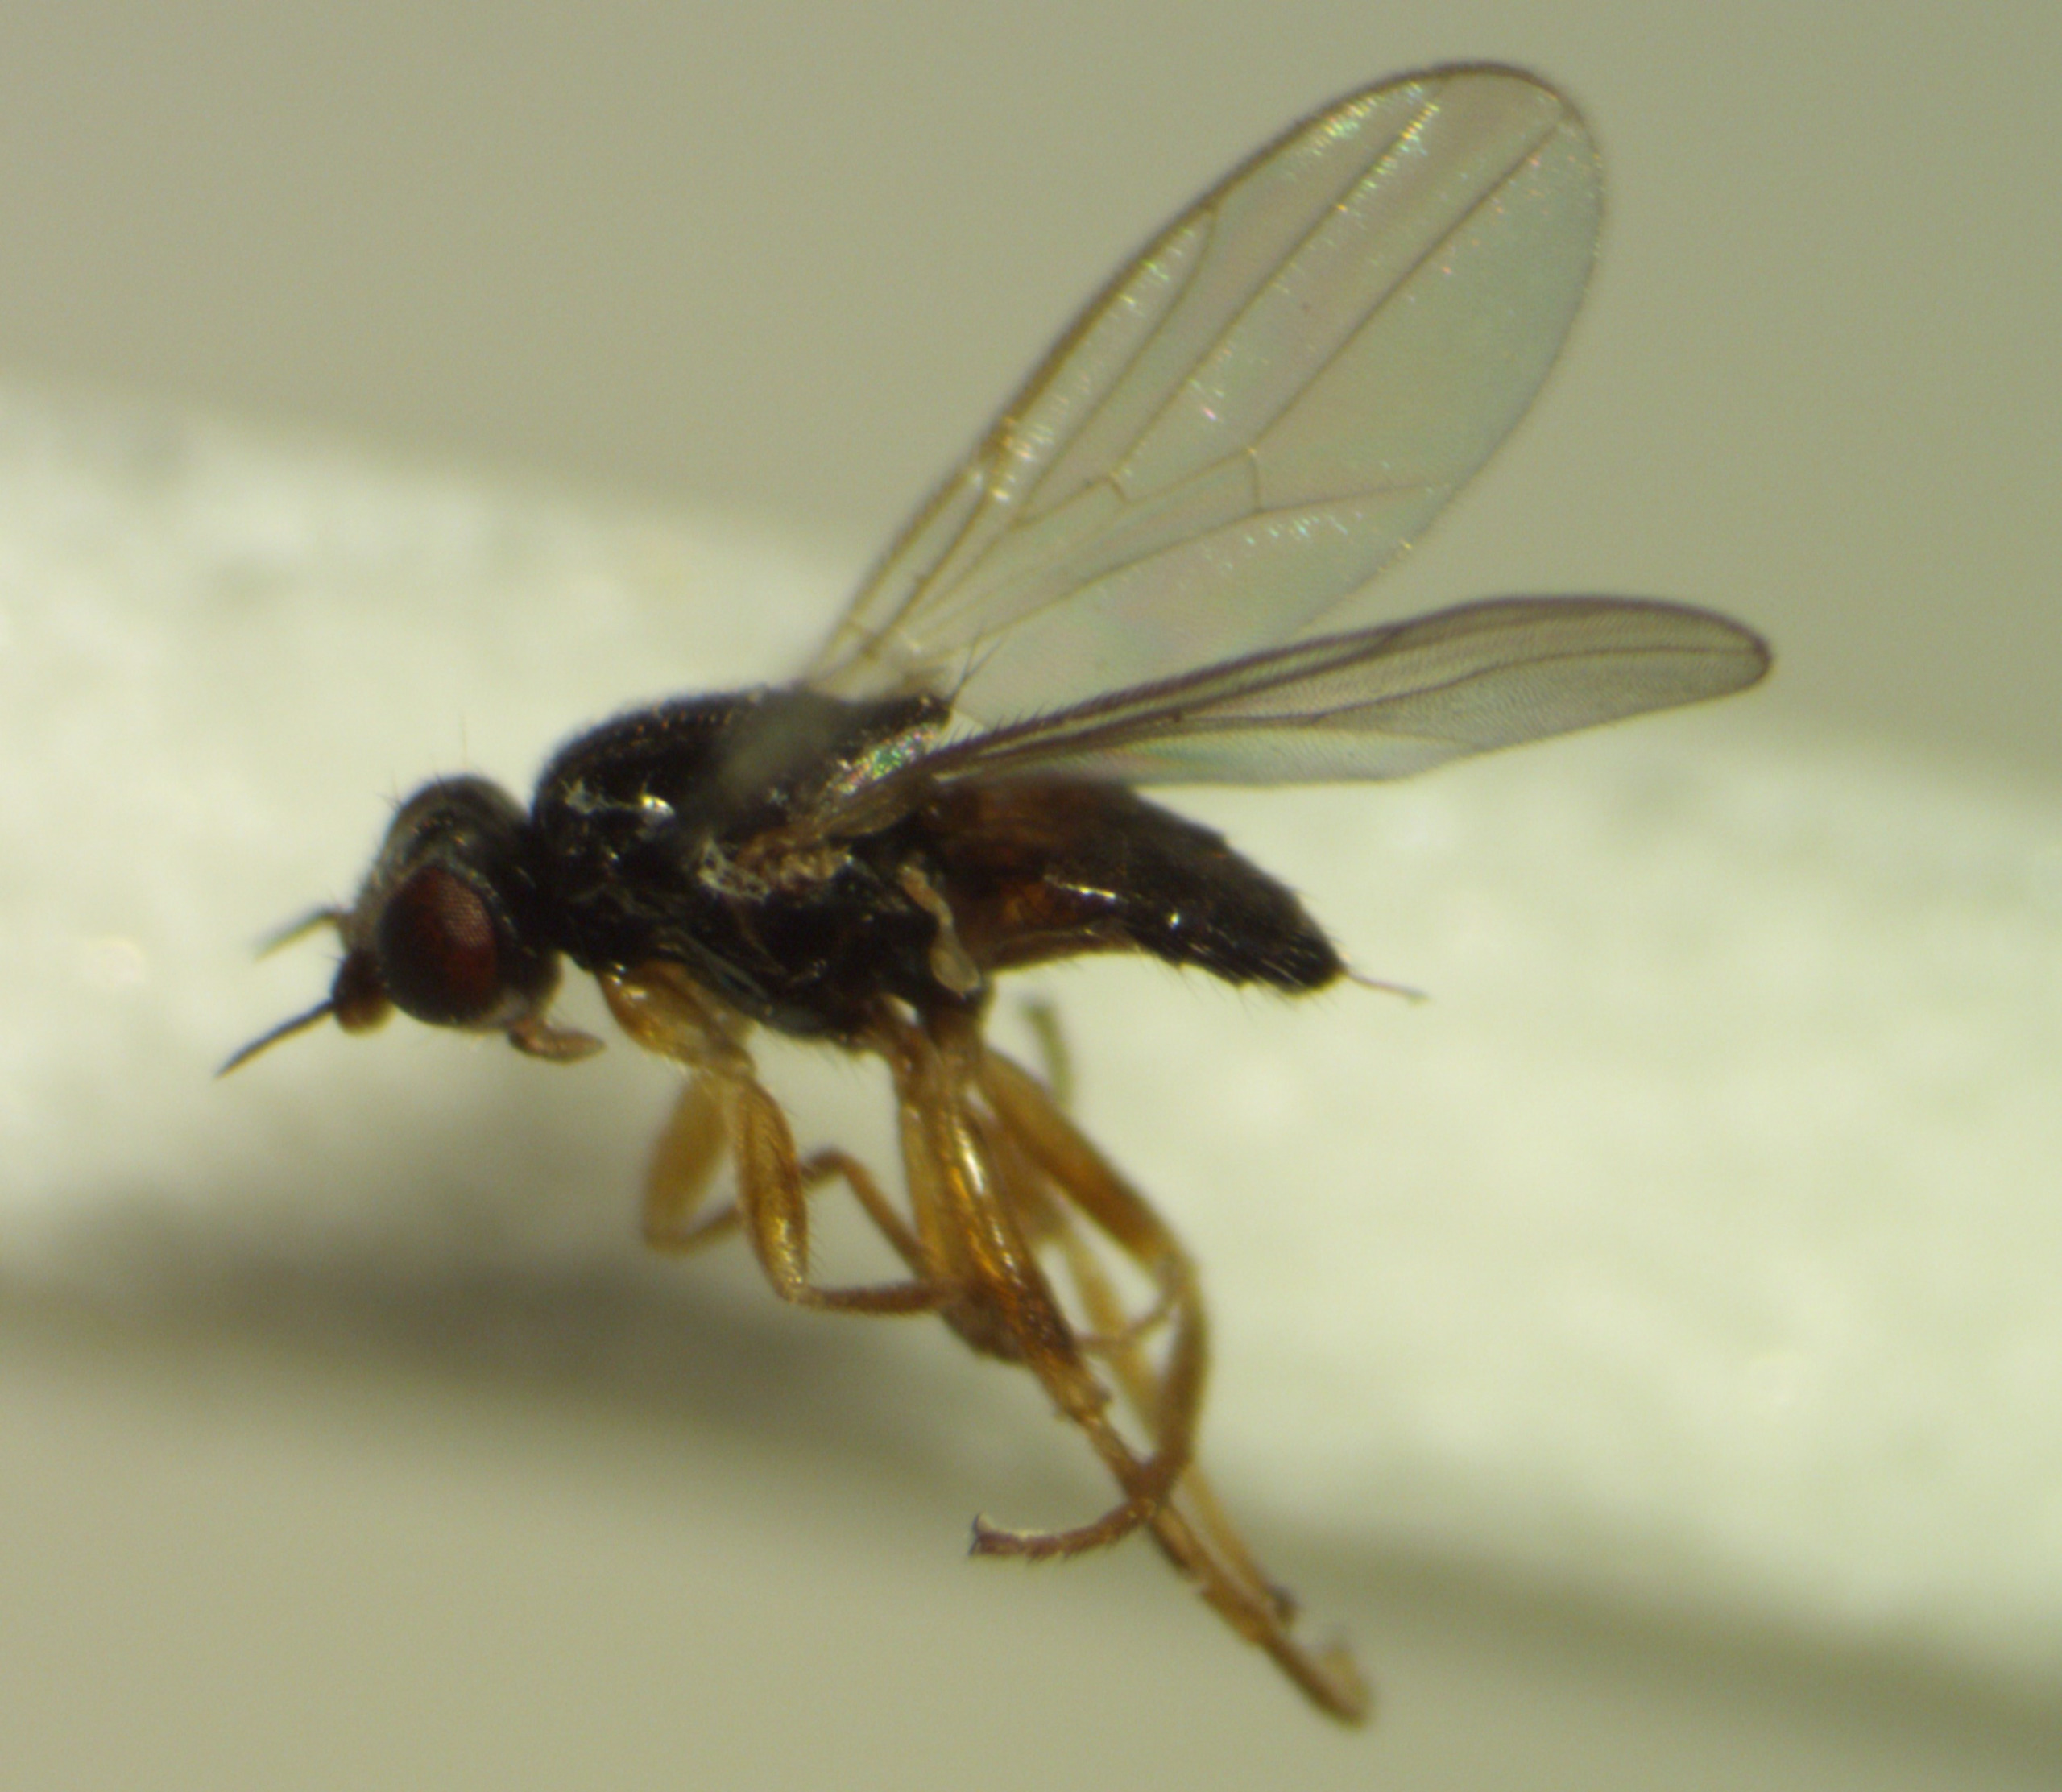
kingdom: Animalia
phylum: Arthropoda
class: Insecta
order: Diptera
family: Chloropidae
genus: Elachiptera
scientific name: Elachiptera cornuta
